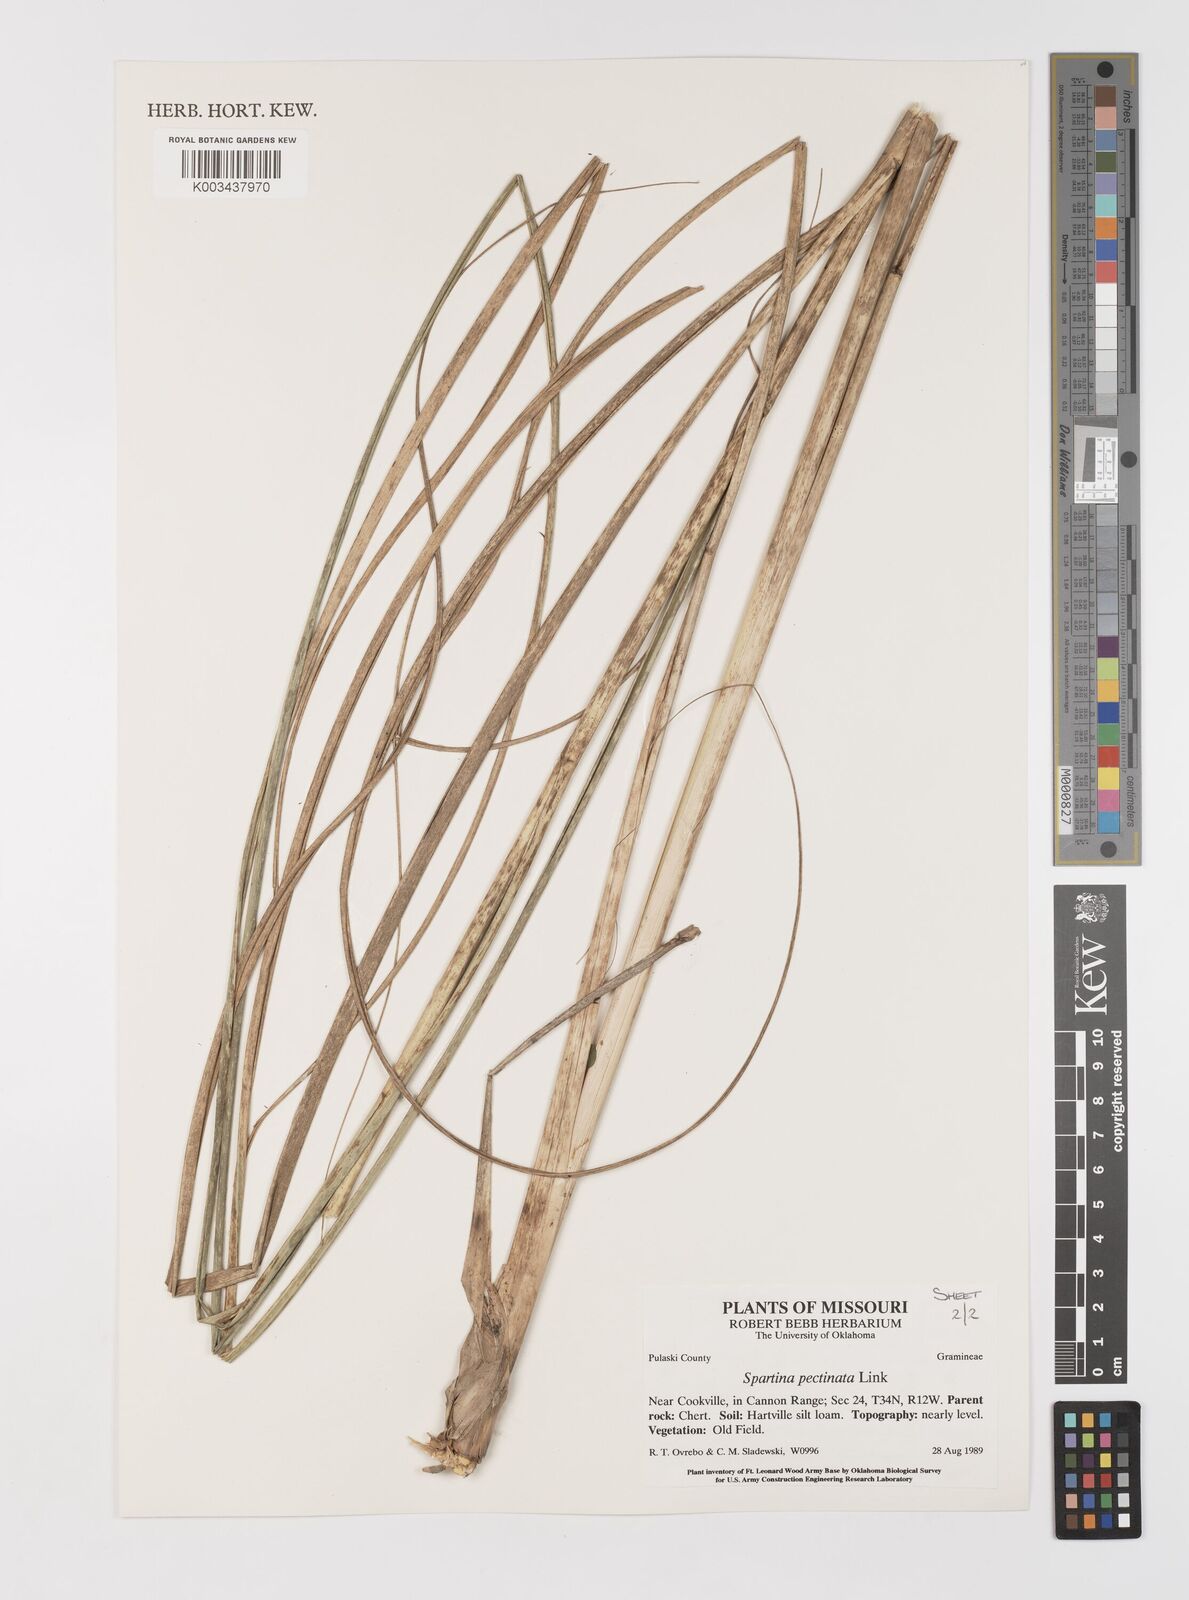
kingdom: Plantae
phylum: Tracheophyta
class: Liliopsida
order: Poales
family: Poaceae
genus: Sporobolus
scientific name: Sporobolus michauxianus
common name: Freshwater cordgrass
